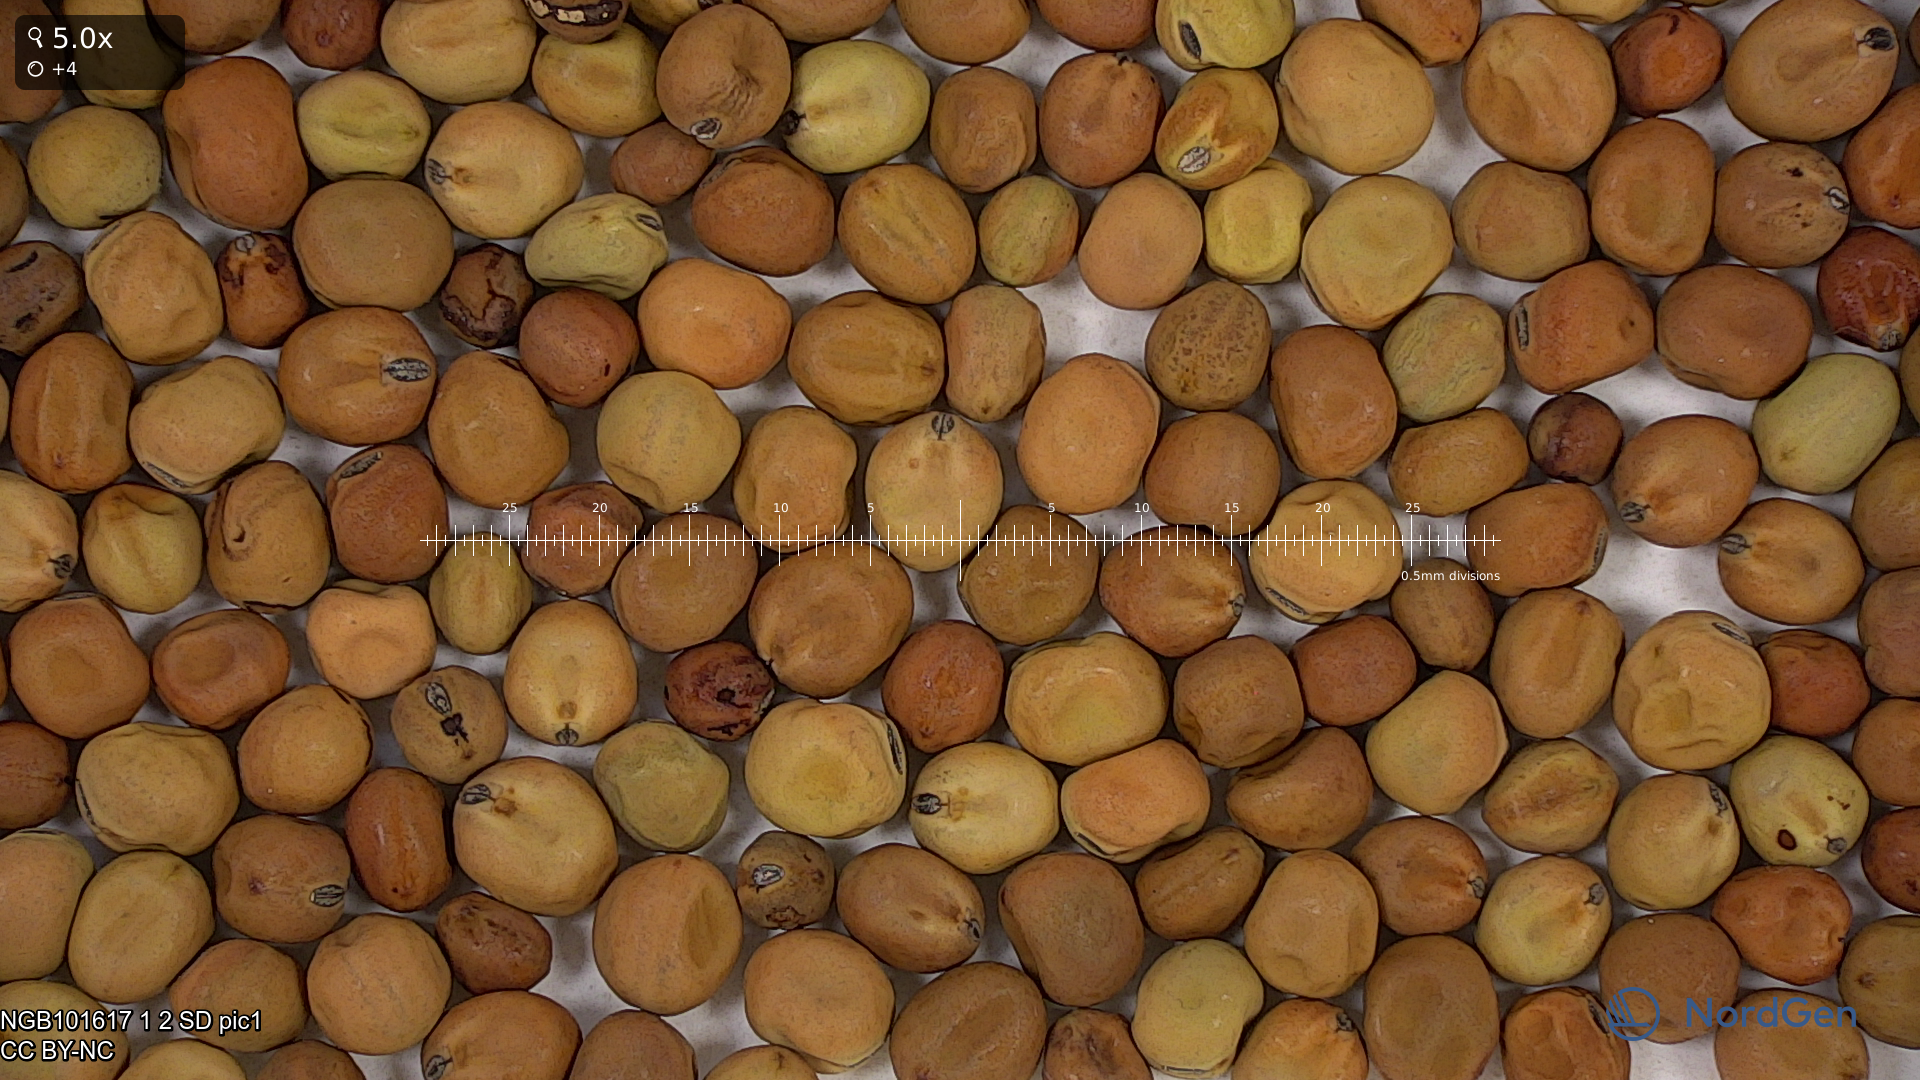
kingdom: Plantae
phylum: Tracheophyta
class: Magnoliopsida
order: Fabales
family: Fabaceae
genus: Lathyrus
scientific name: Lathyrus oleraceus
